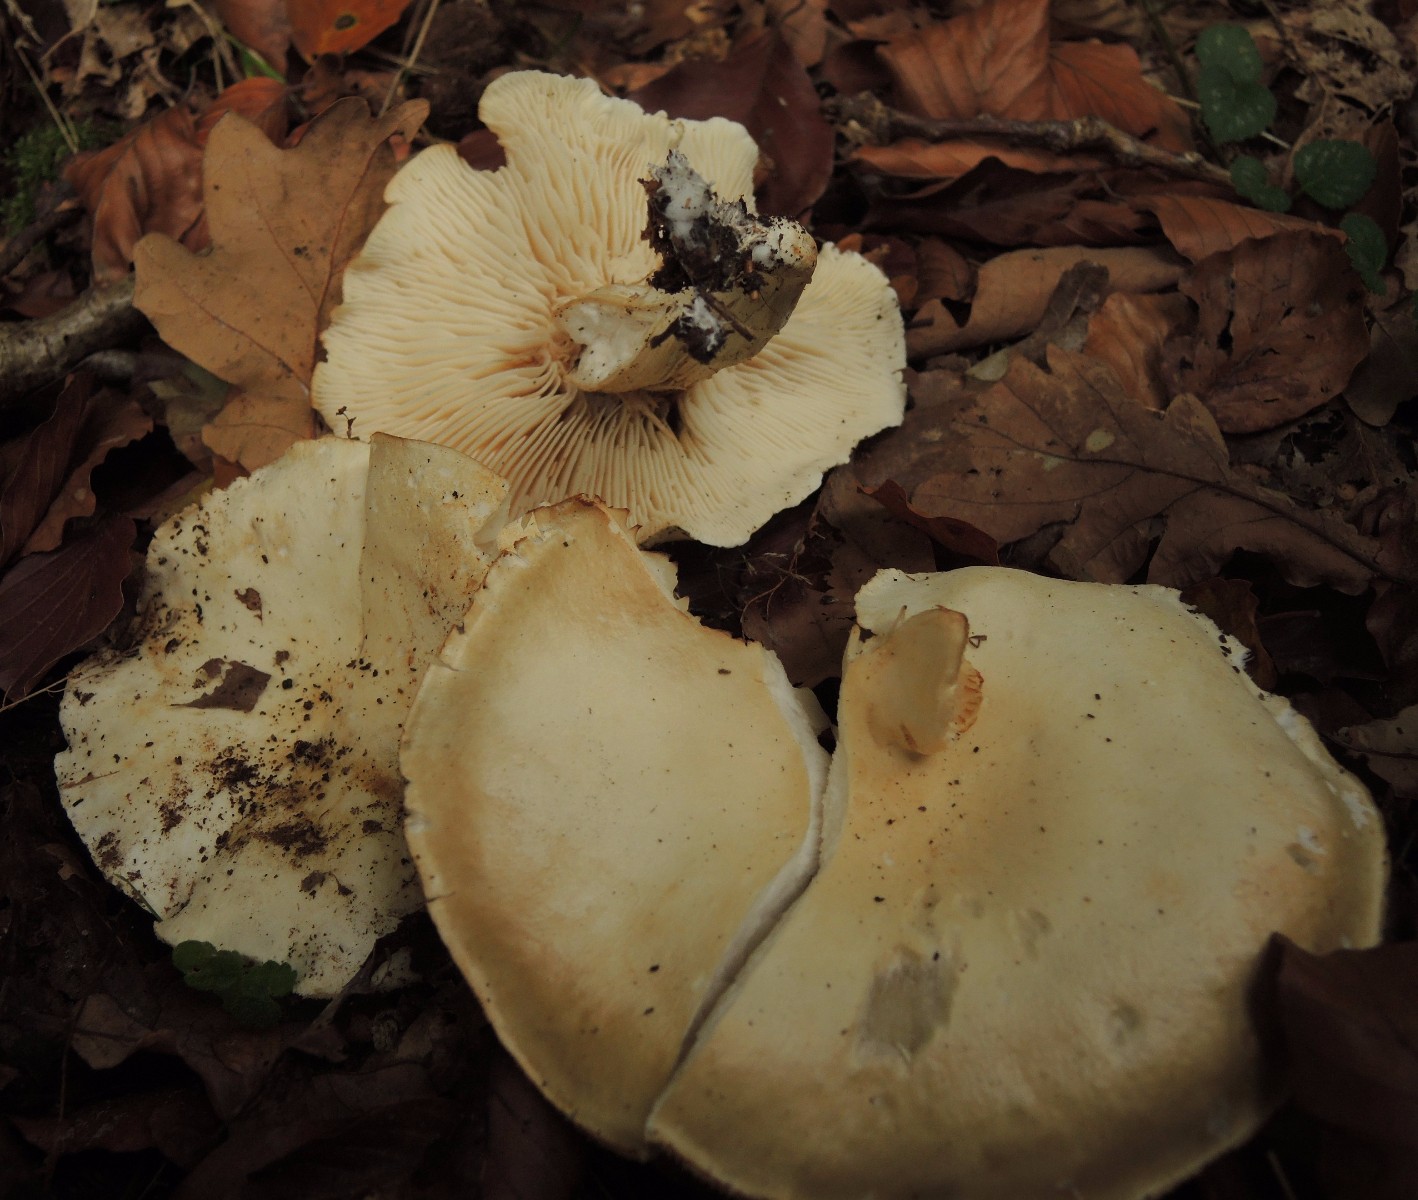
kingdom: Fungi
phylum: Basidiomycota
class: Agaricomycetes
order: Agaricales
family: Tricholomataceae
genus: Tricholoma
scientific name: Tricholoma album
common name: honning-ridderhat
